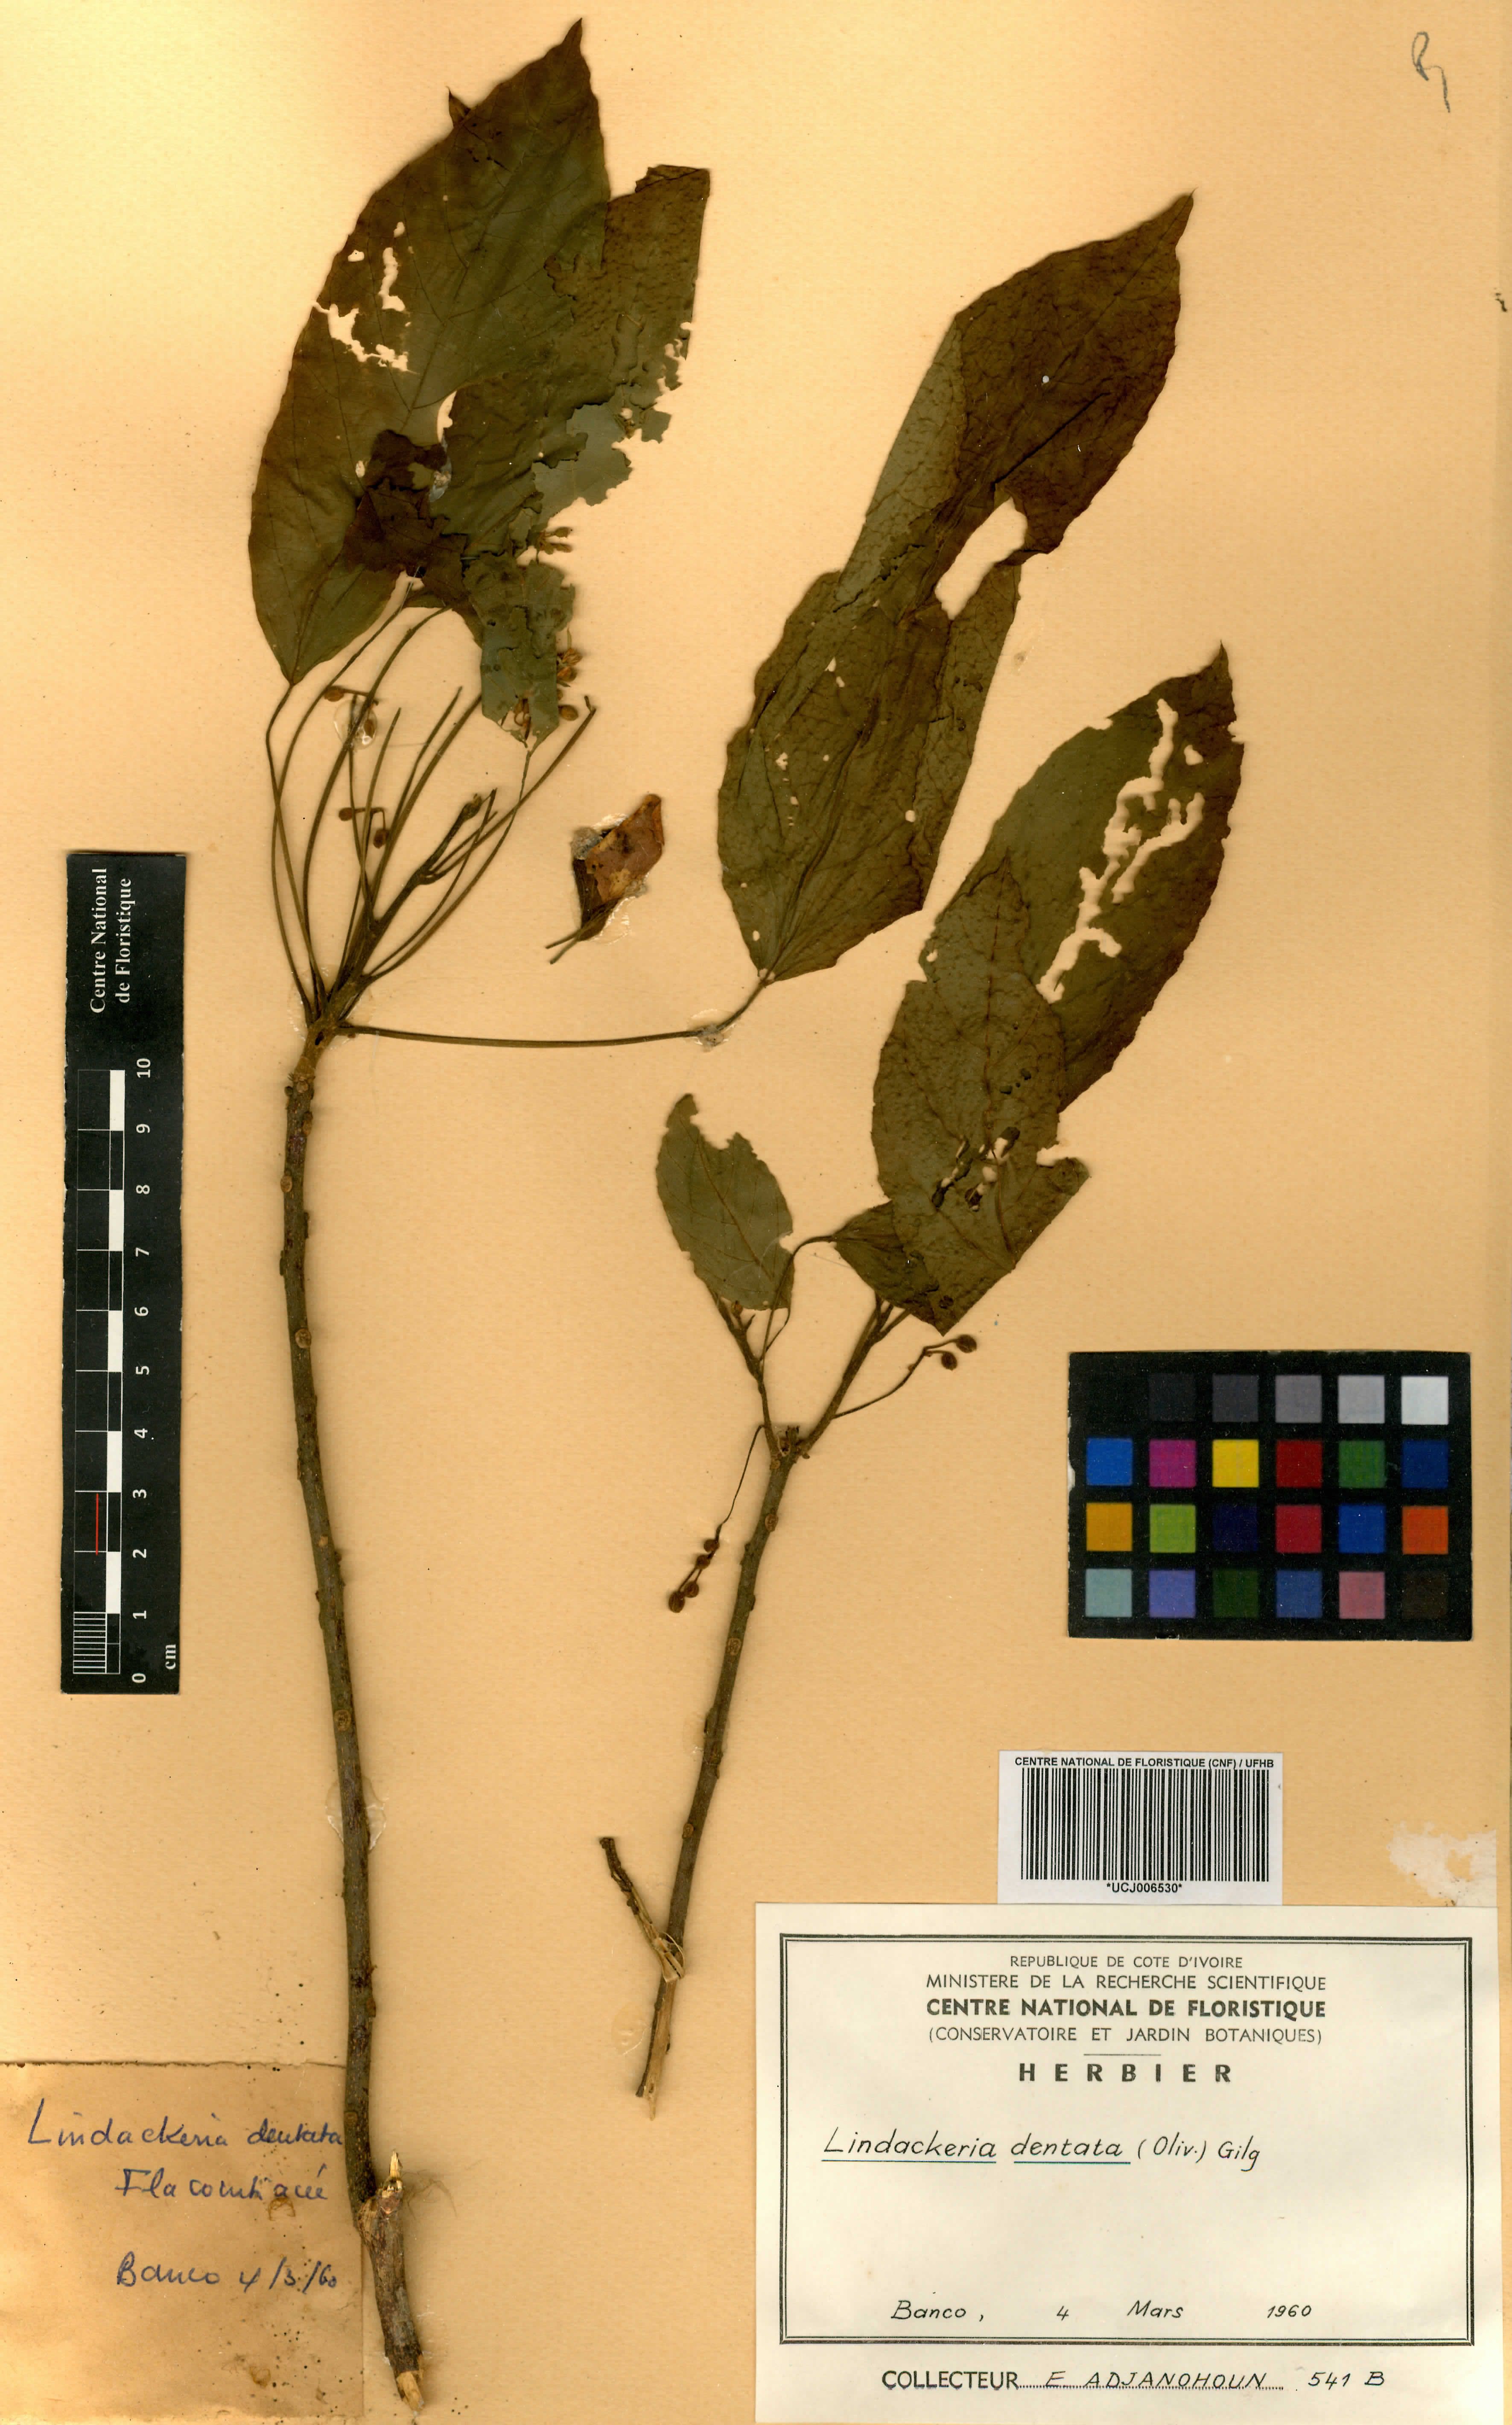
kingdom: Plantae
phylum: Tracheophyta
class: Magnoliopsida
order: Malpighiales
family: Achariaceae
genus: Lindackeria
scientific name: Lindackeria dentata
